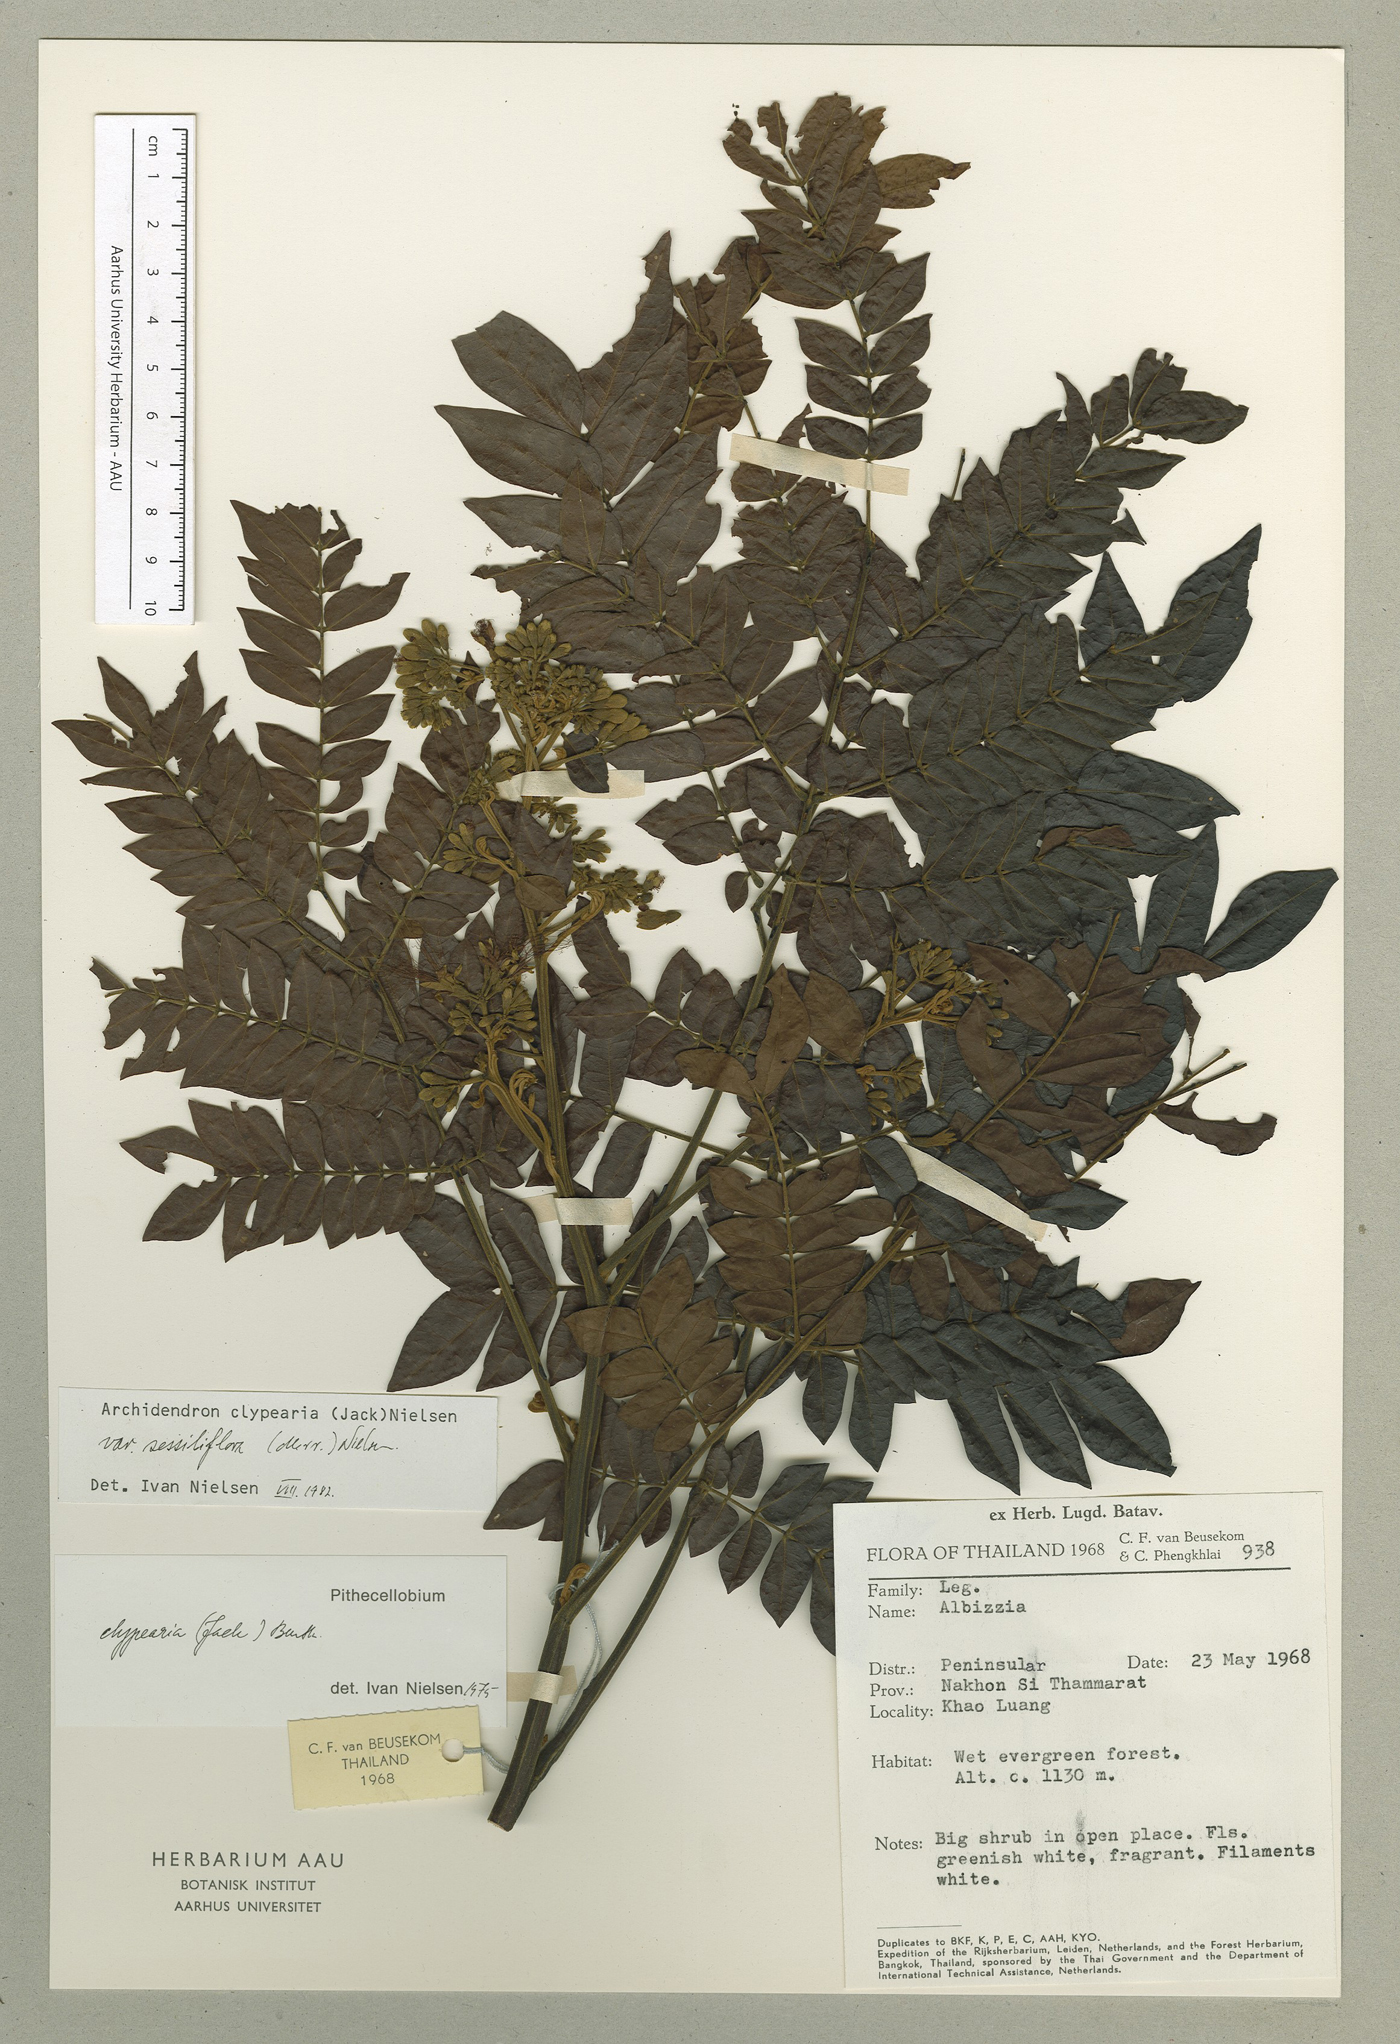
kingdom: Plantae
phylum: Tracheophyta
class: Magnoliopsida
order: Fabales
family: Fabaceae
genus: Archidendron
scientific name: Archidendron clypearia
